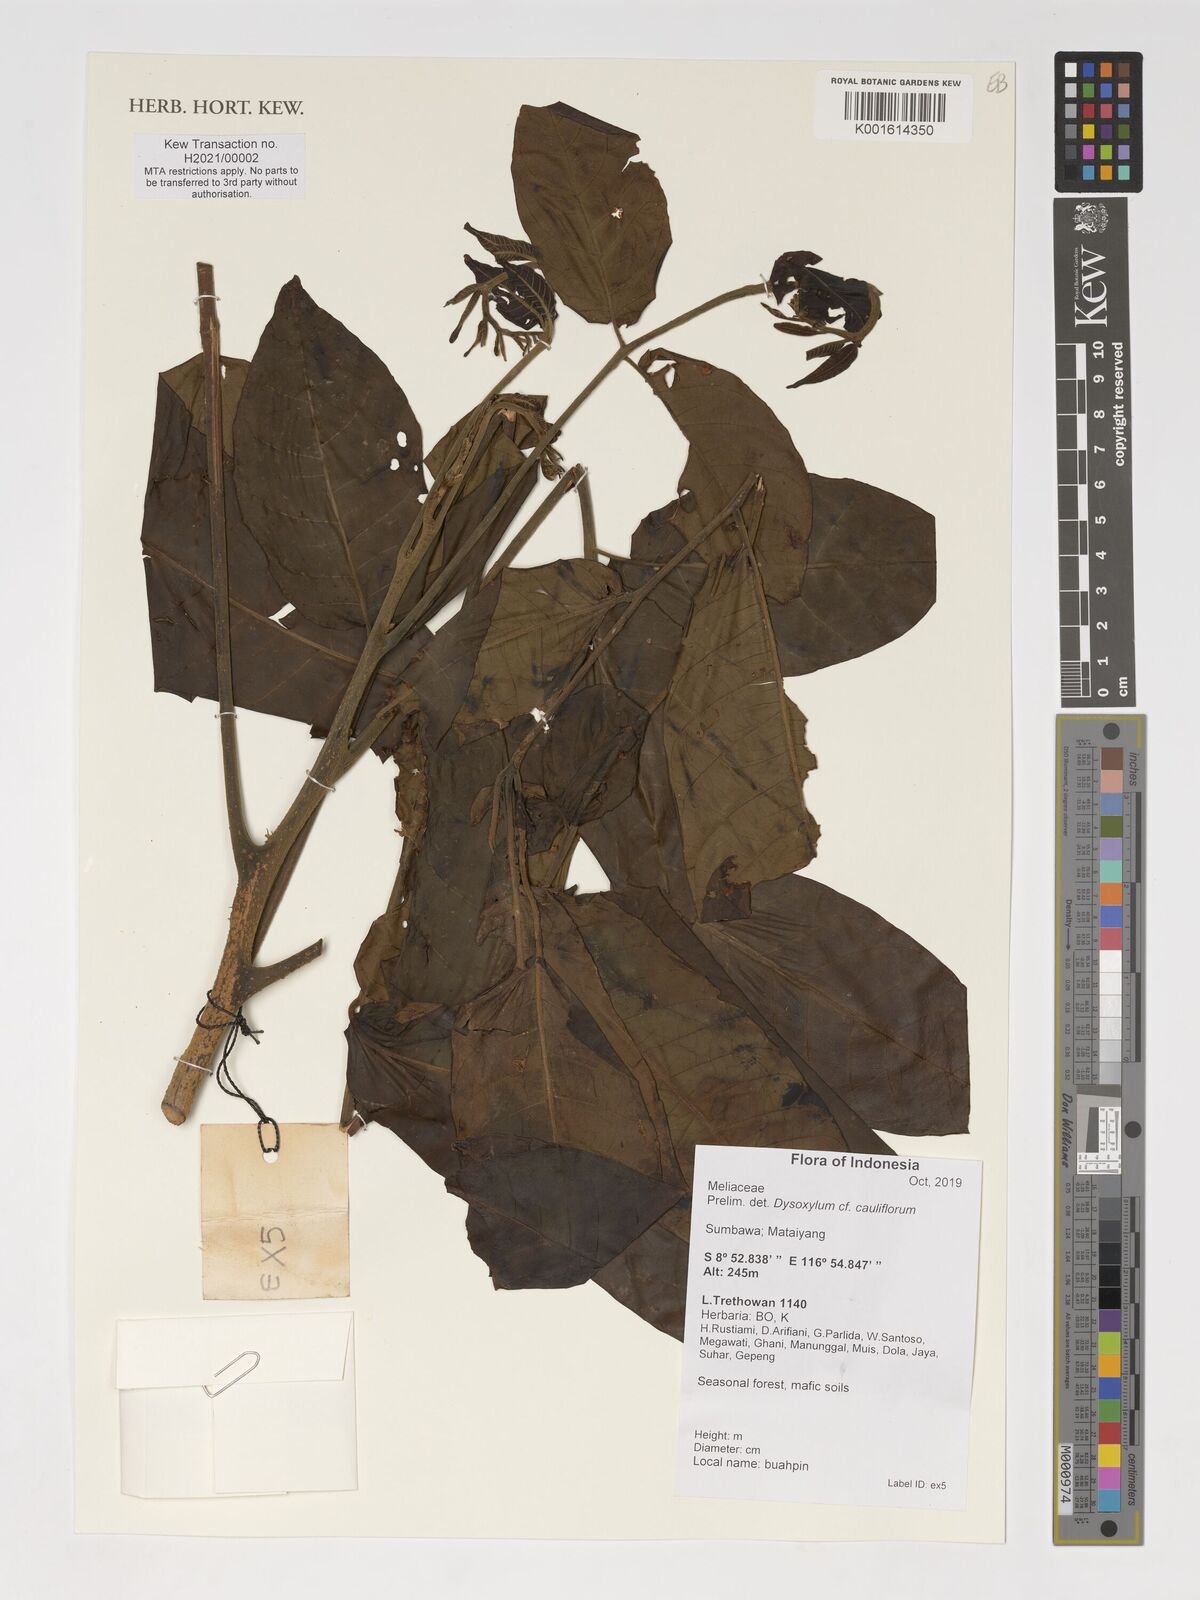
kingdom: Plantae
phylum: Tracheophyta
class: Magnoliopsida
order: Sapindales
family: Meliaceae
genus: Epicharis
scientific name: Epicharis cuneata
